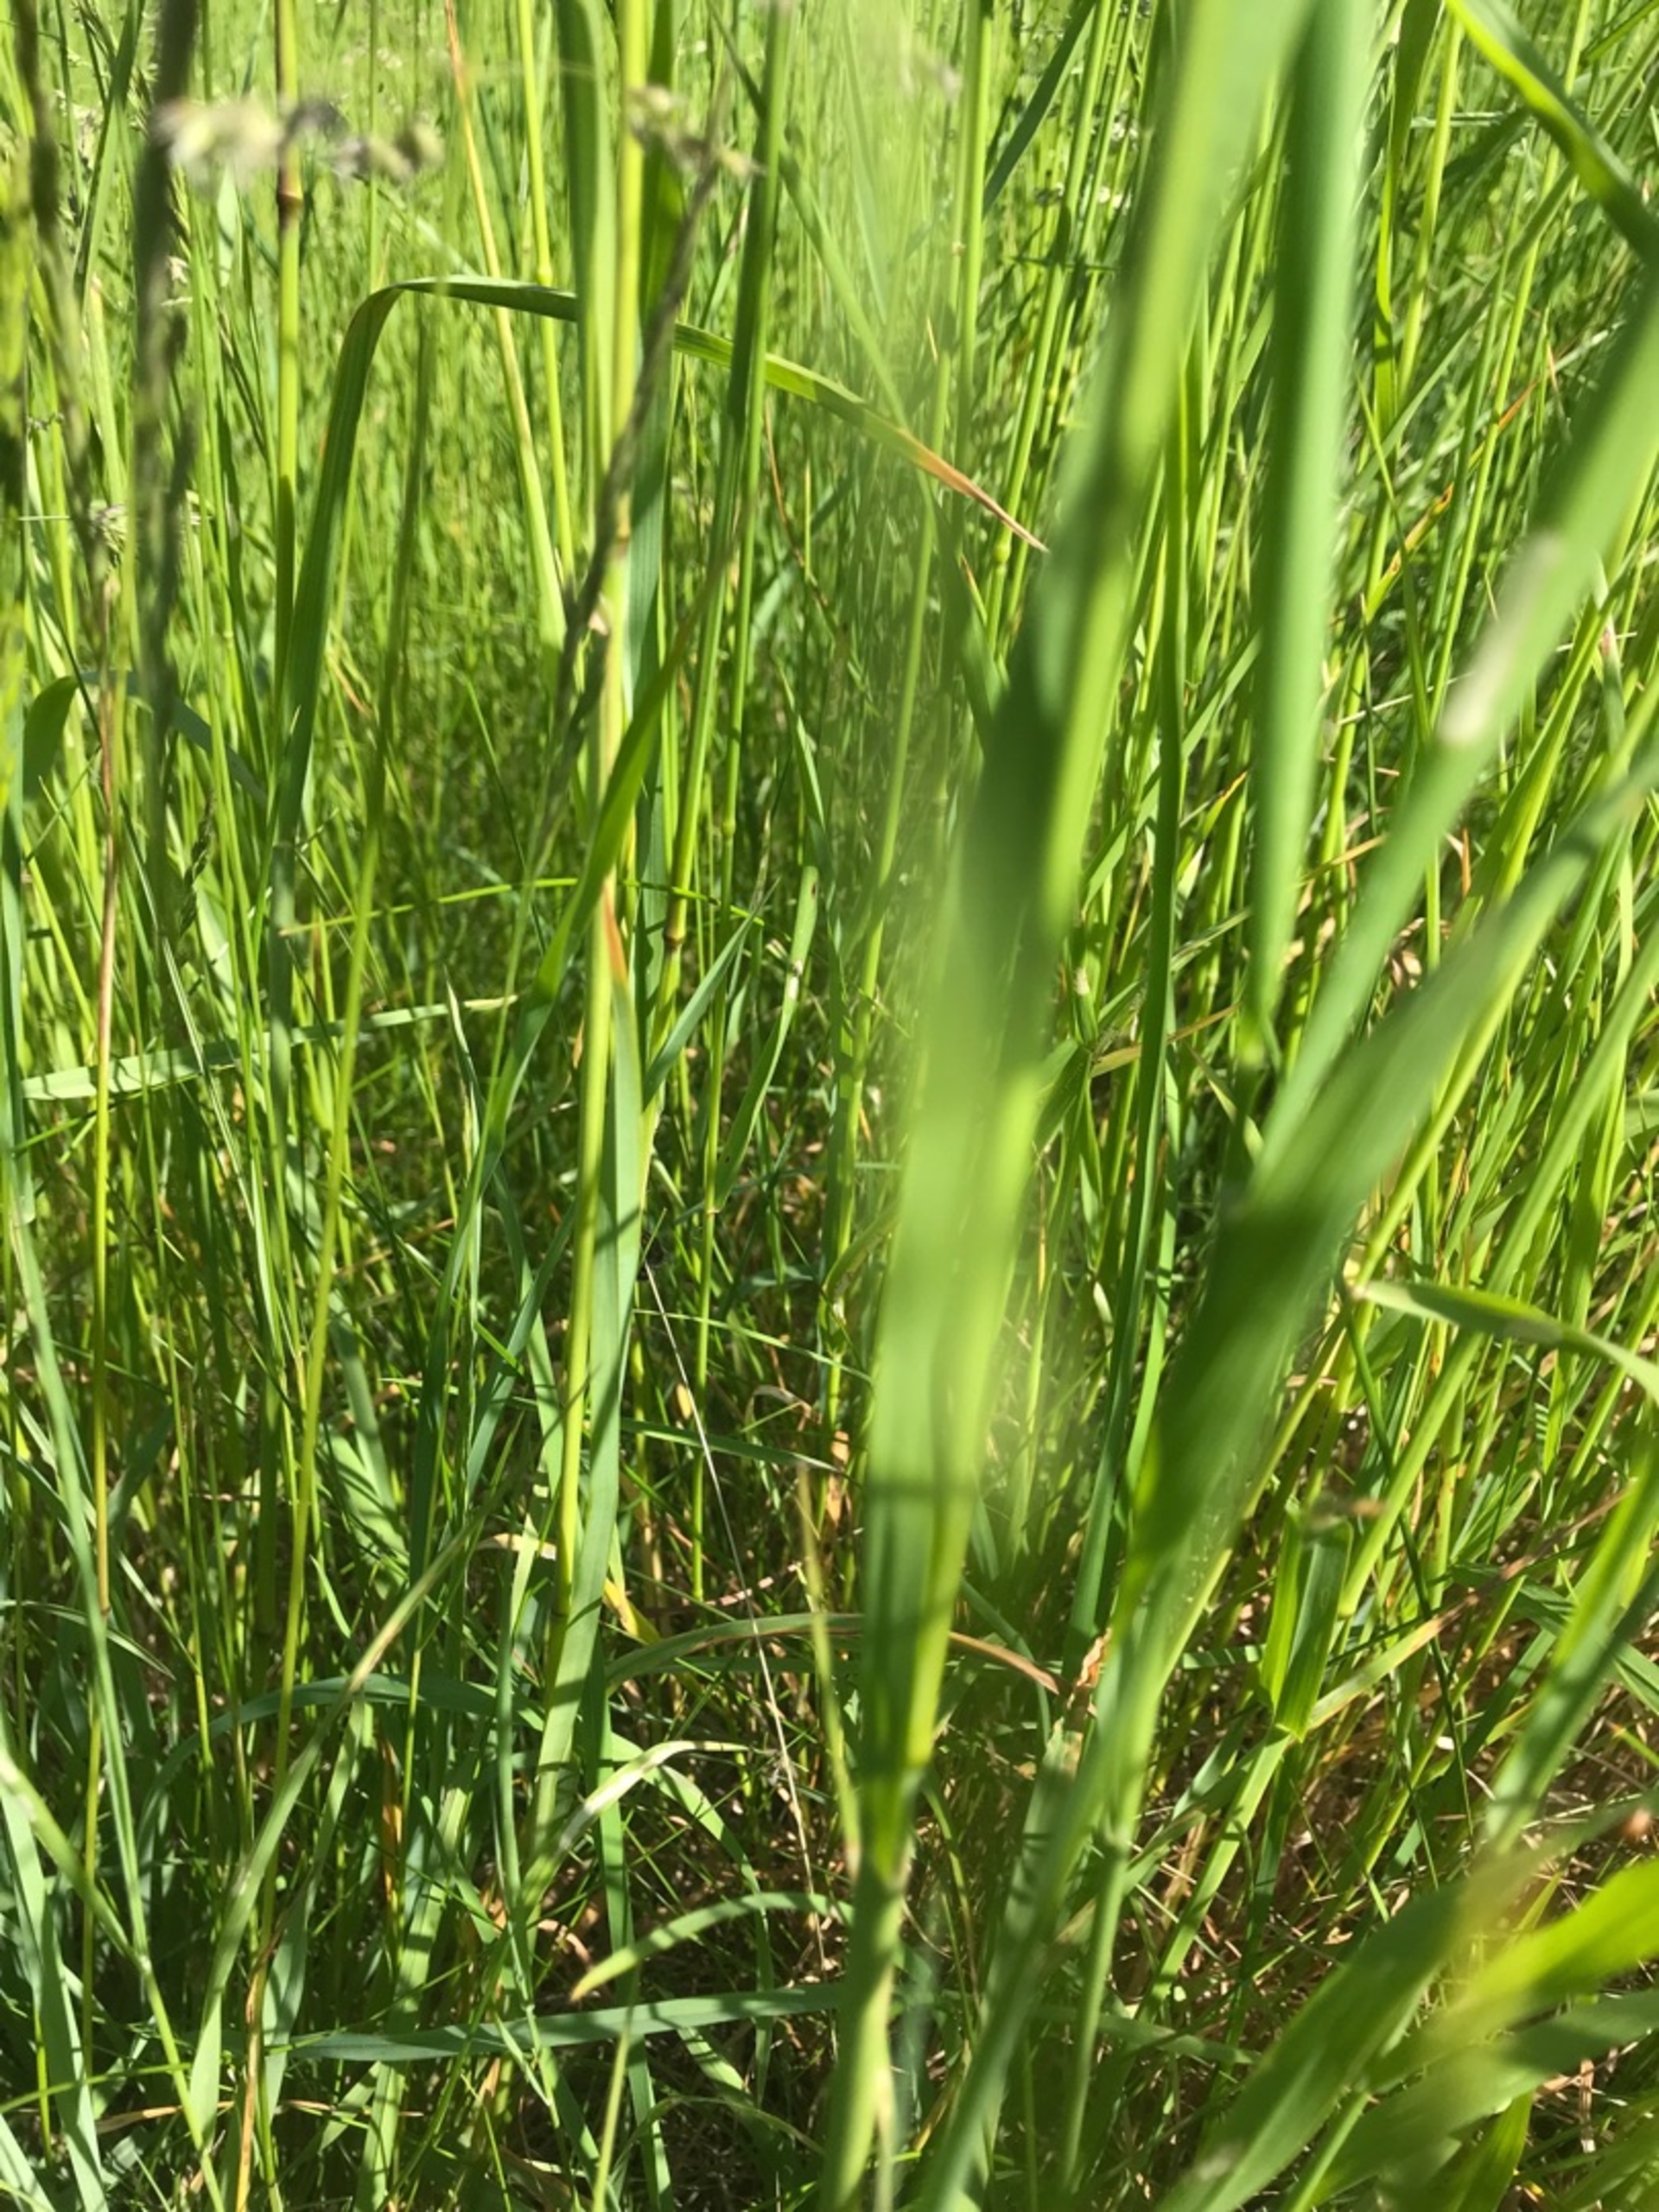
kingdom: Animalia
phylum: Arthropoda
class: Insecta
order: Lepidoptera
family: Erebidae
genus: Callistege
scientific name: Callistege mi
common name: Marmoreret kløverugle
